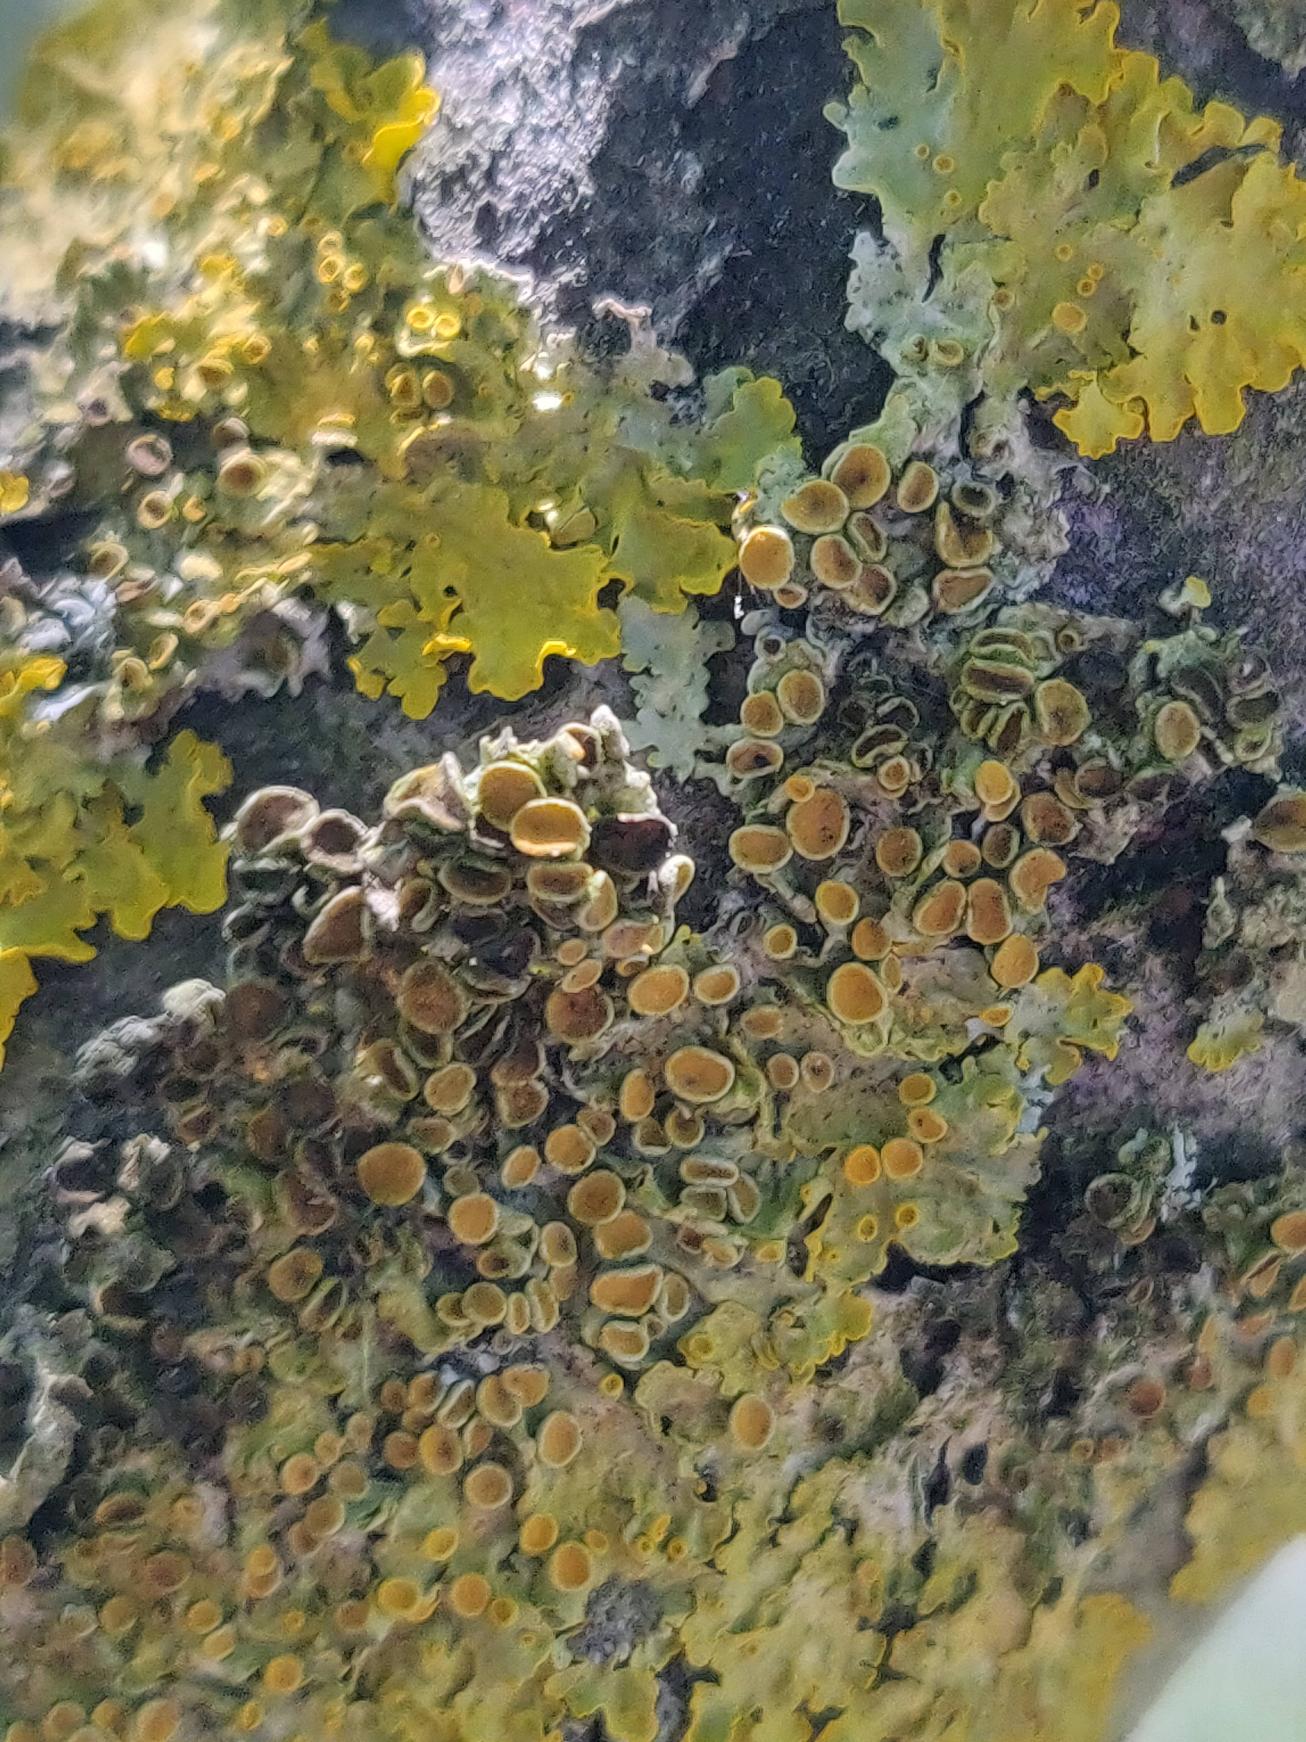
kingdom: Fungi
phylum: Ascomycota
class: Lecanoromycetes
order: Teloschistales
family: Teloschistaceae
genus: Xanthoria
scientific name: Xanthoria parietina
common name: Almindelig væggelav
